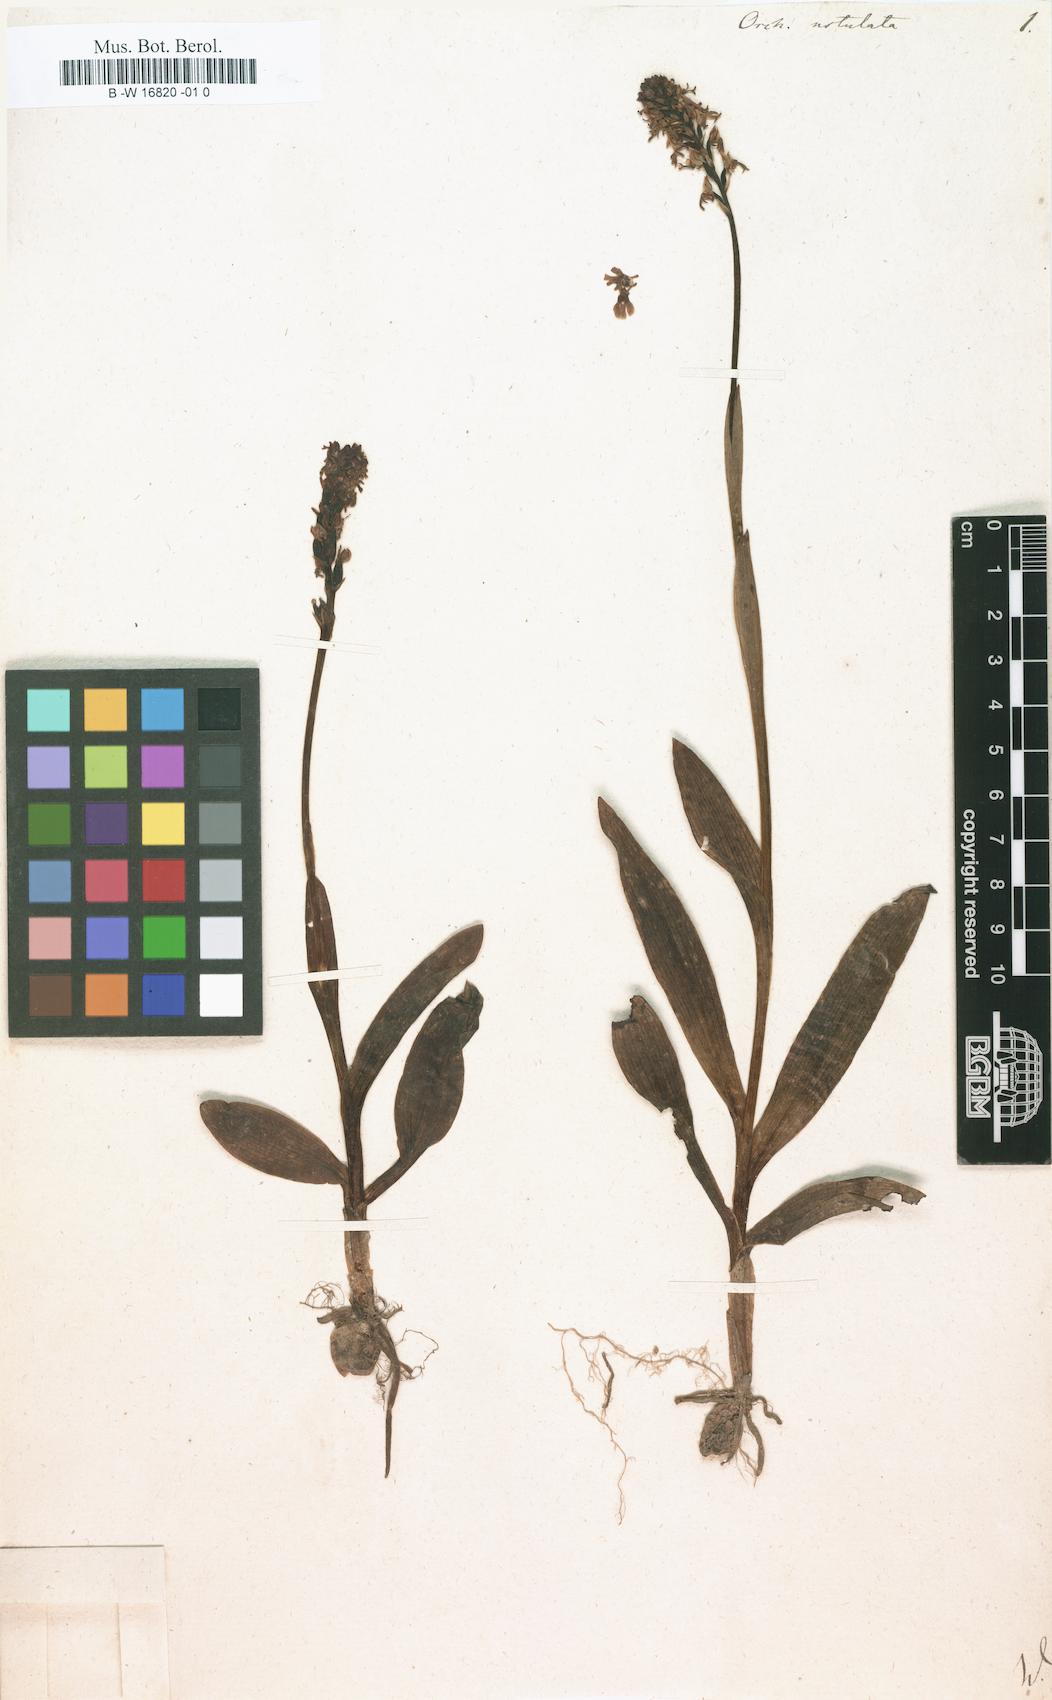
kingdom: Plantae
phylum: Tracheophyta
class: Liliopsida
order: Asparagales
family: Orchidaceae
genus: Neotinea
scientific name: Neotinea ustulata
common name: Burnt orchid
